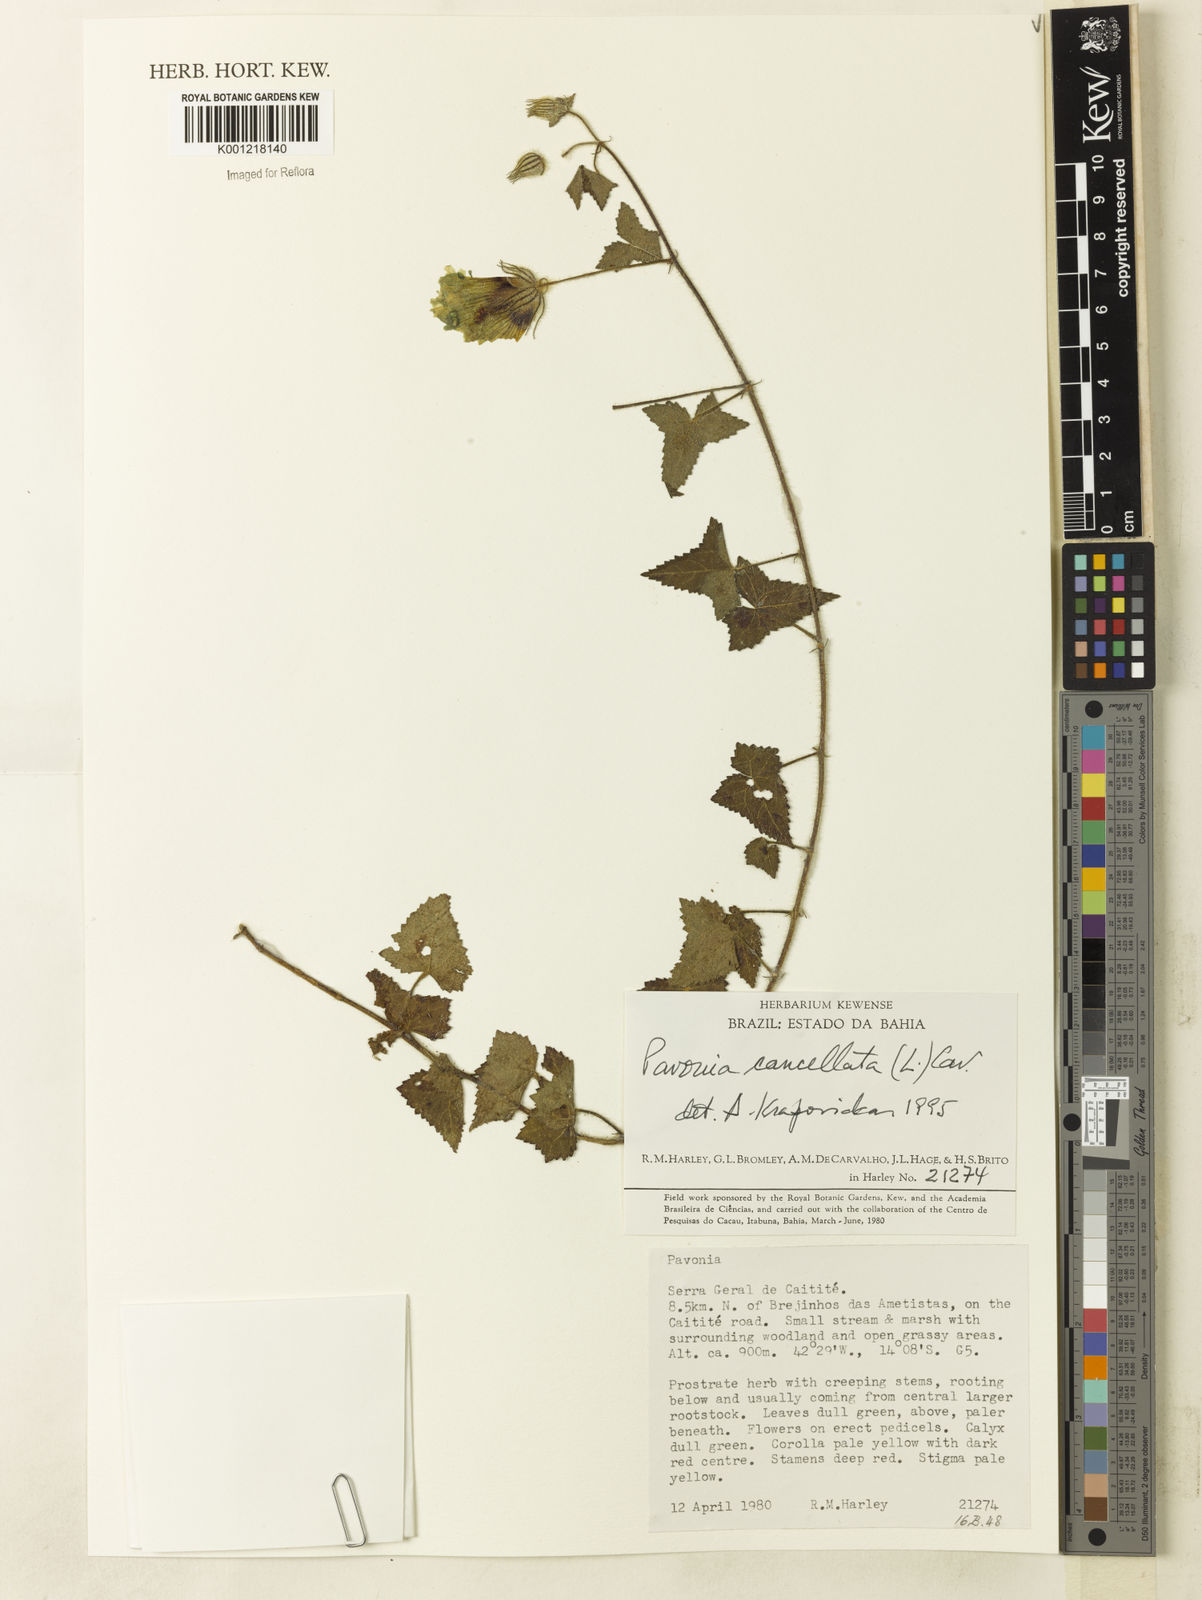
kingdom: Plantae
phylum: Tracheophyta
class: Magnoliopsida
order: Malvales
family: Malvaceae
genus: Pavonia
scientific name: Pavonia cancellata
